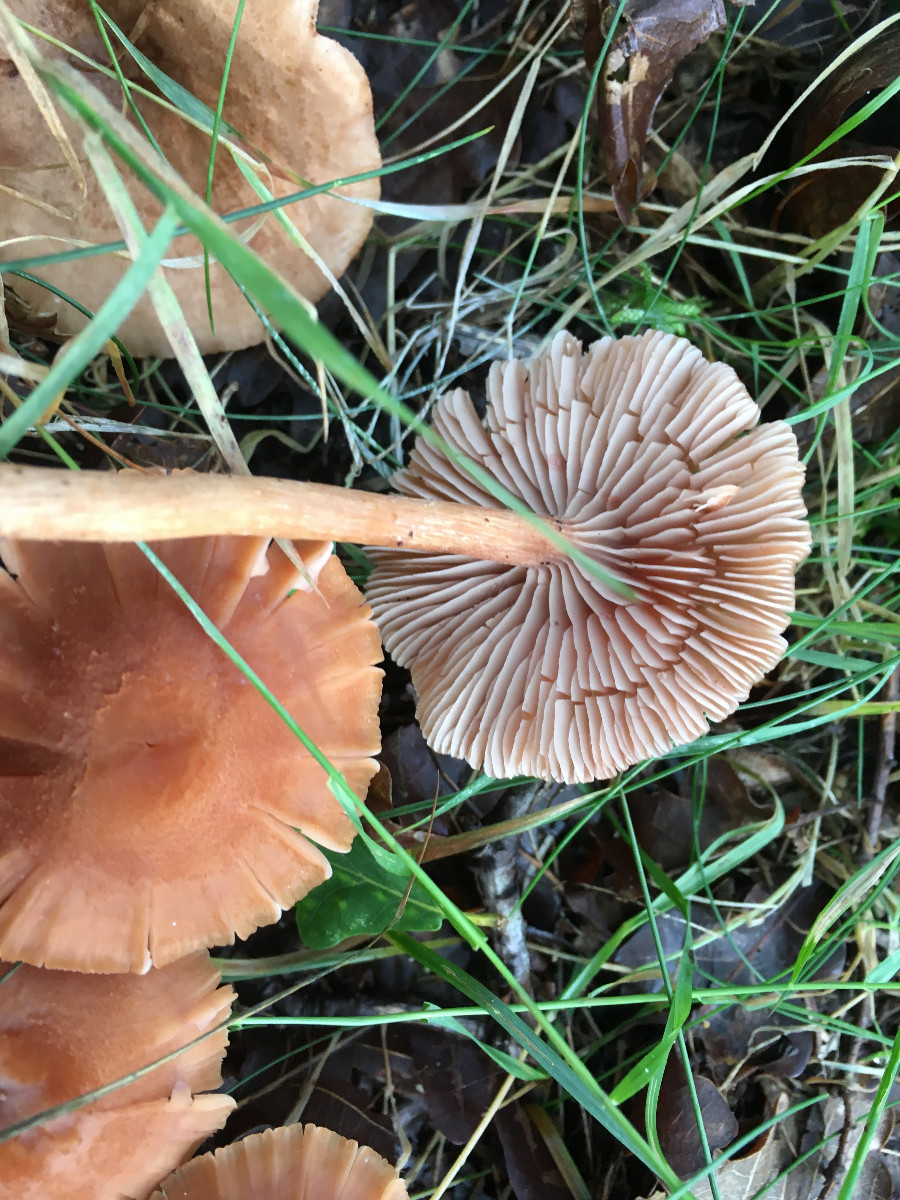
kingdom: Fungi
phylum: Basidiomycota
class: Agaricomycetes
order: Agaricales
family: Hydnangiaceae
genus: Laccaria
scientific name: Laccaria proxima
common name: stor ametysthat
